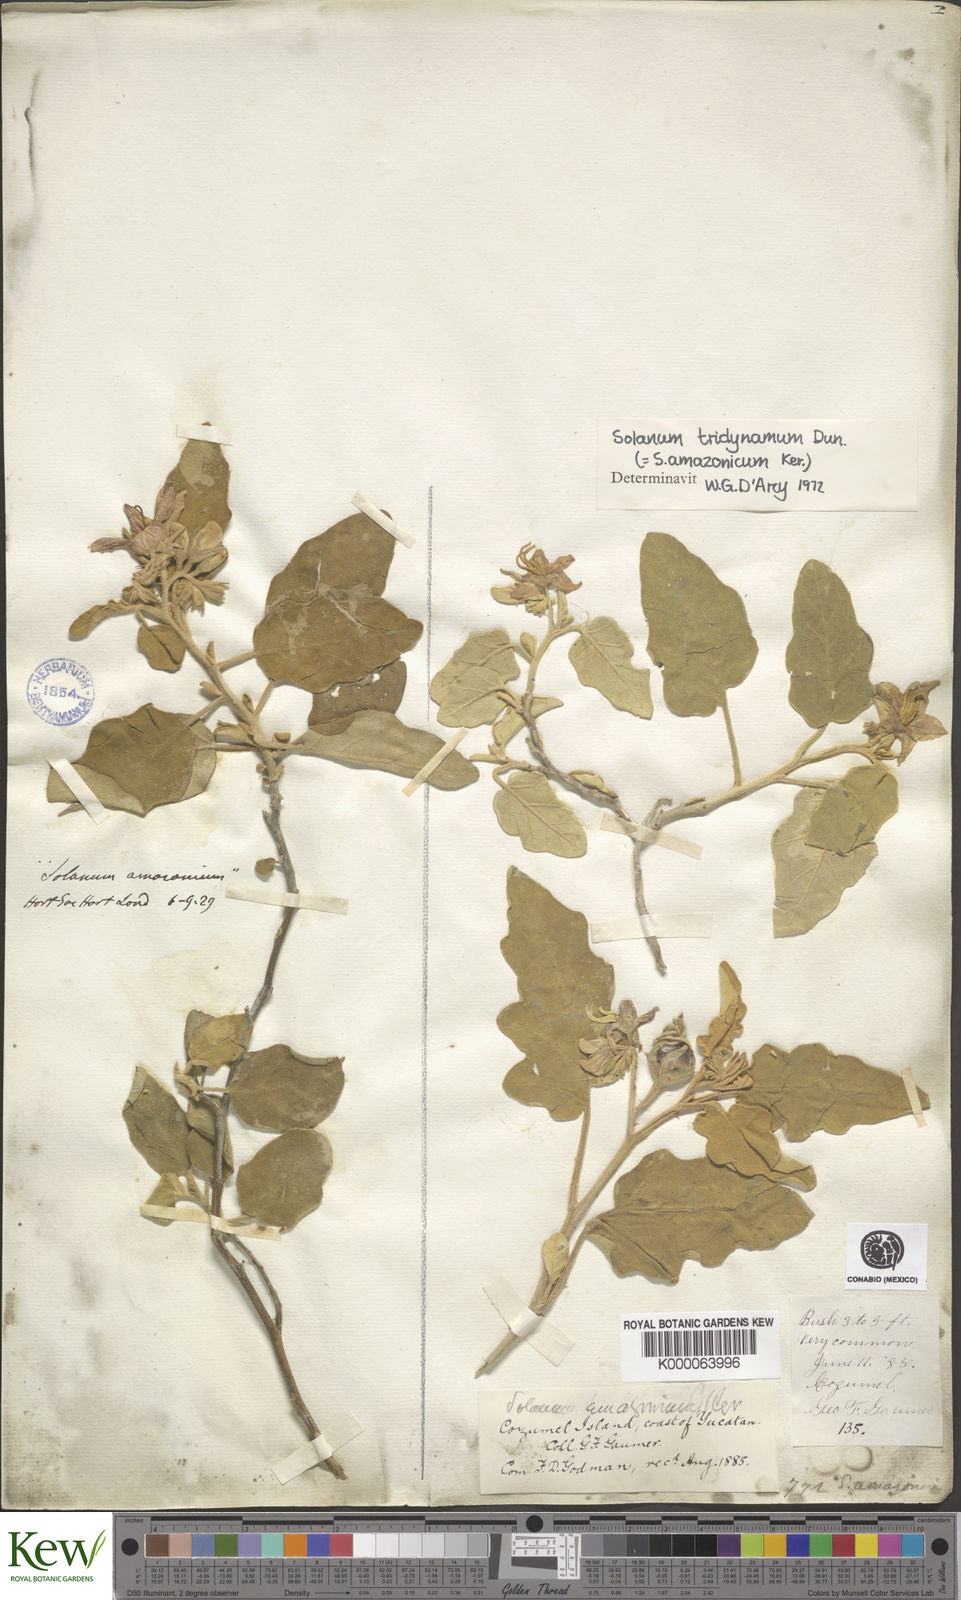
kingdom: Plantae
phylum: Tracheophyta
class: Magnoliopsida
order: Solanales
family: Solanaceae
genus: Solanum
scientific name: Solanum houstonii
